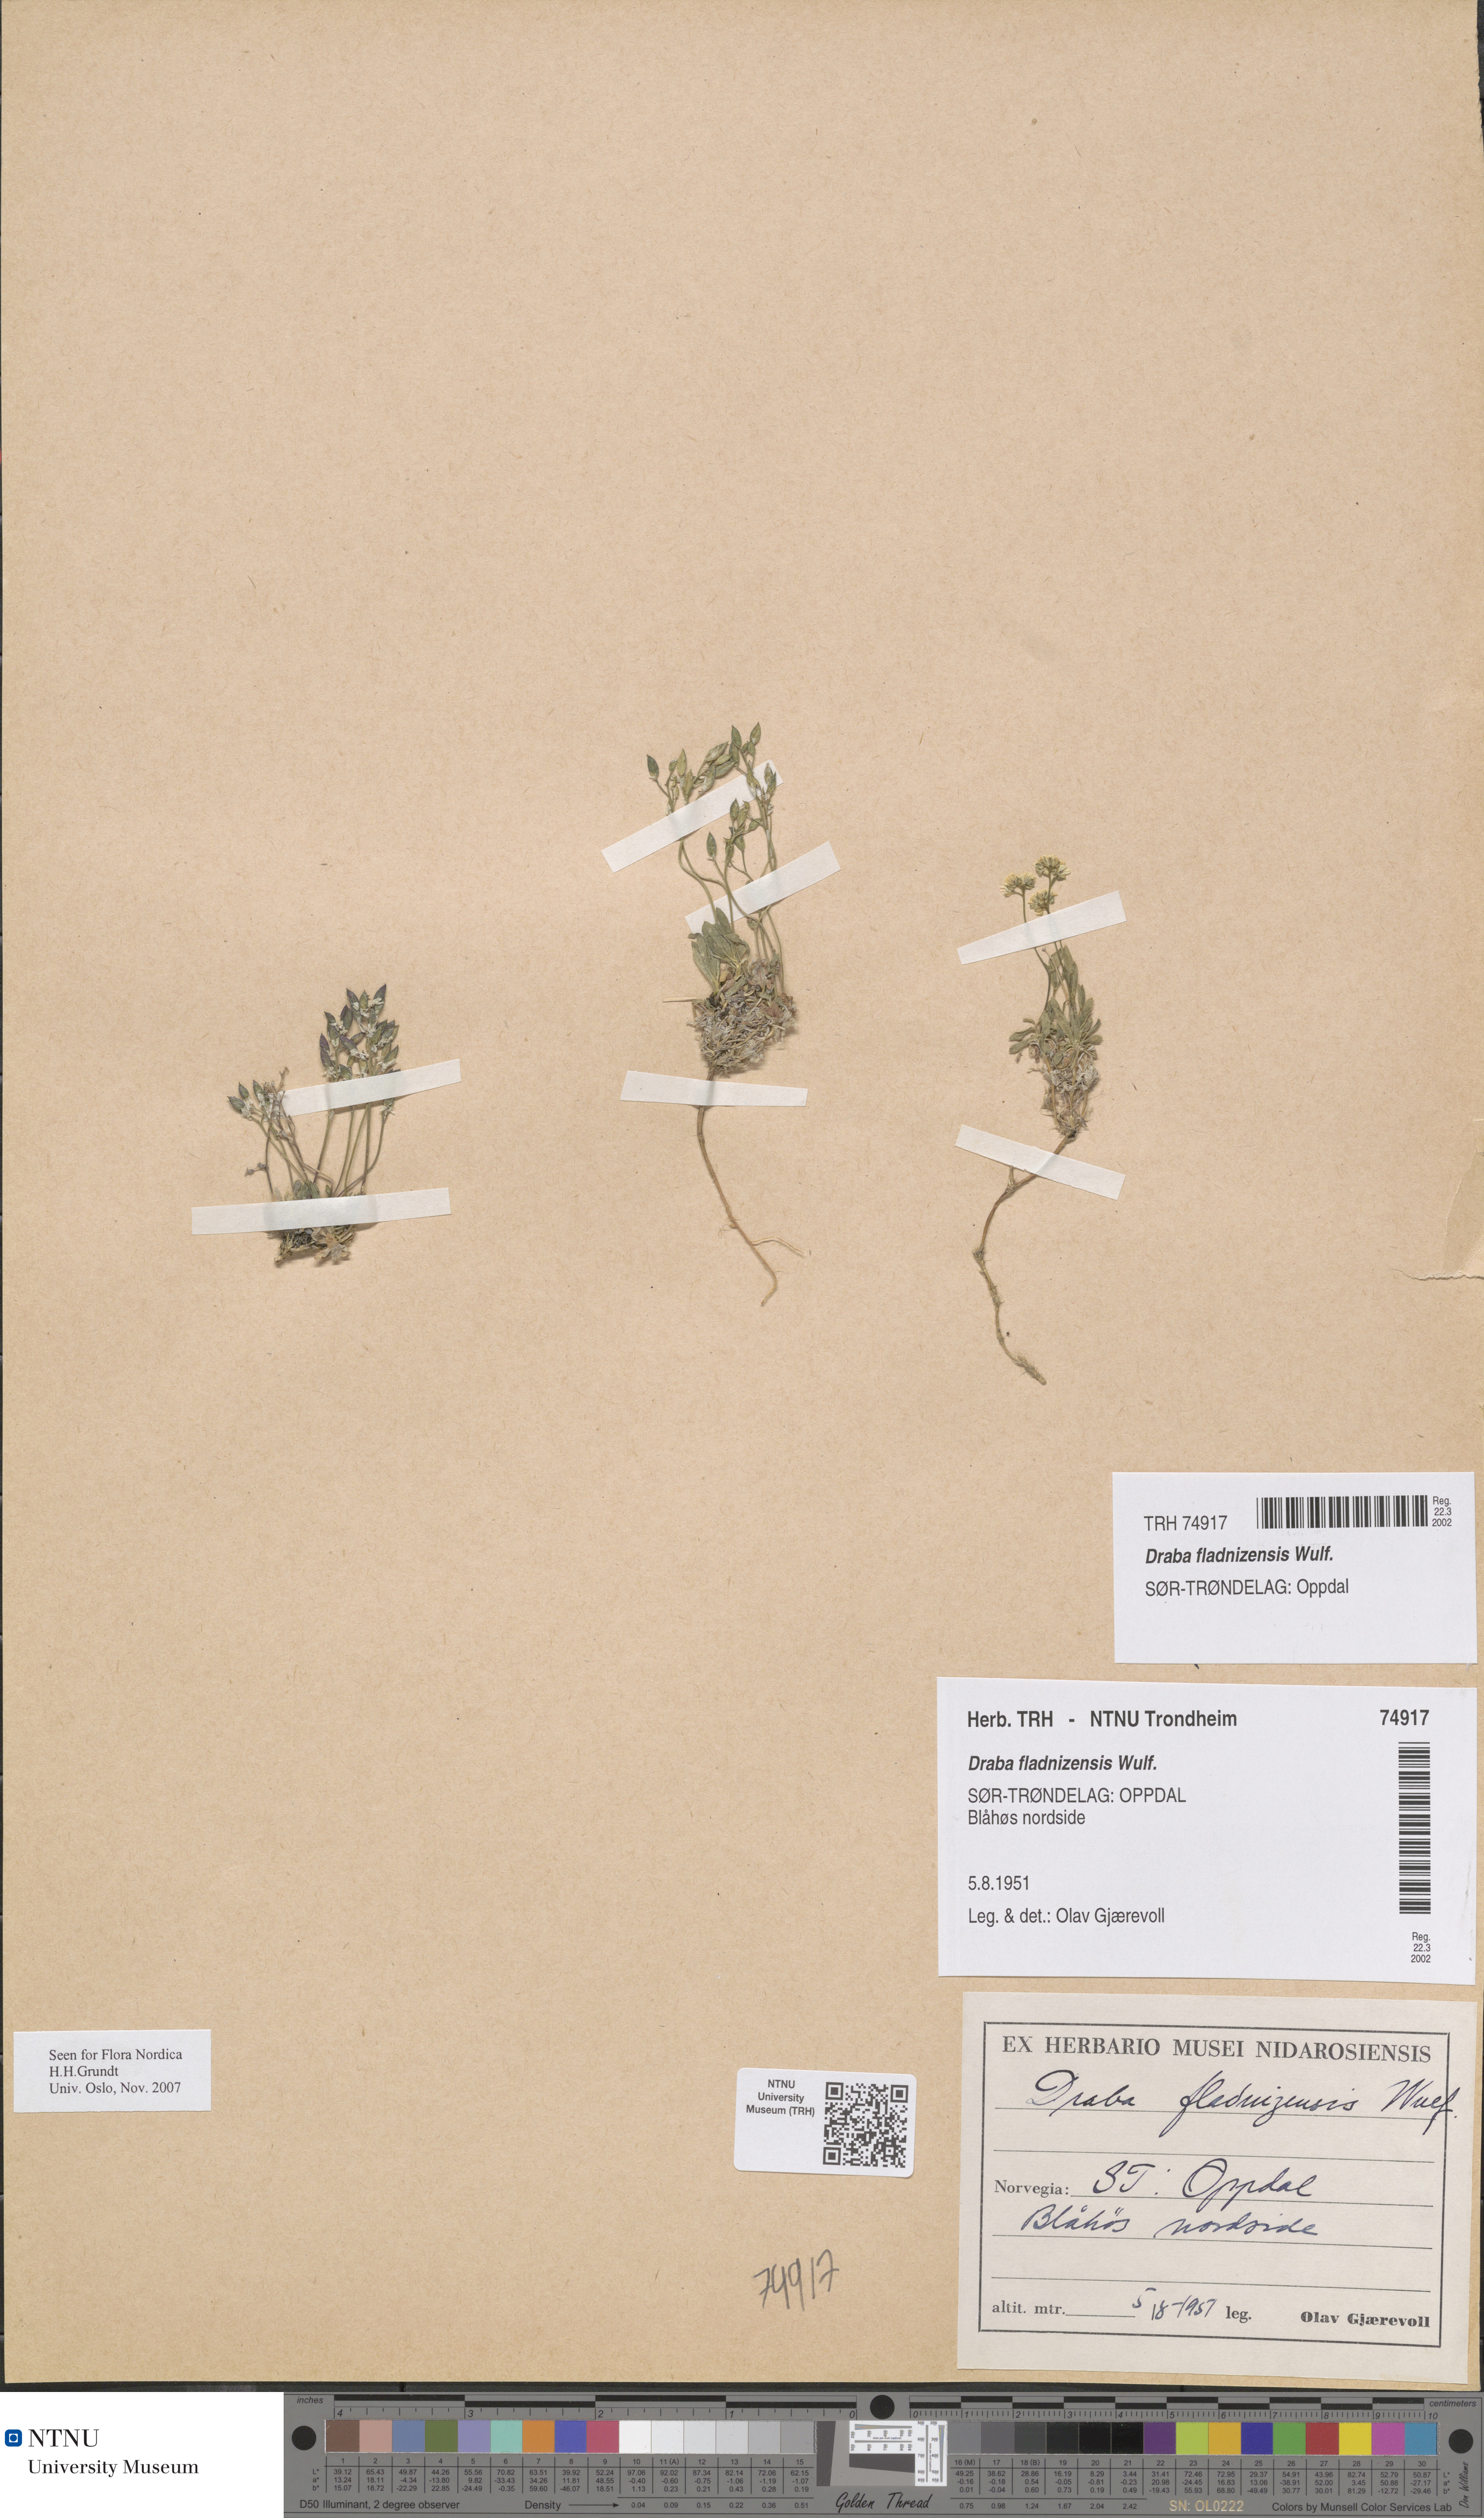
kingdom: Plantae
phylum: Tracheophyta
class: Magnoliopsida
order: Brassicales
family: Brassicaceae
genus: Draba
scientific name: Draba fladnizensis
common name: Austrian draba
